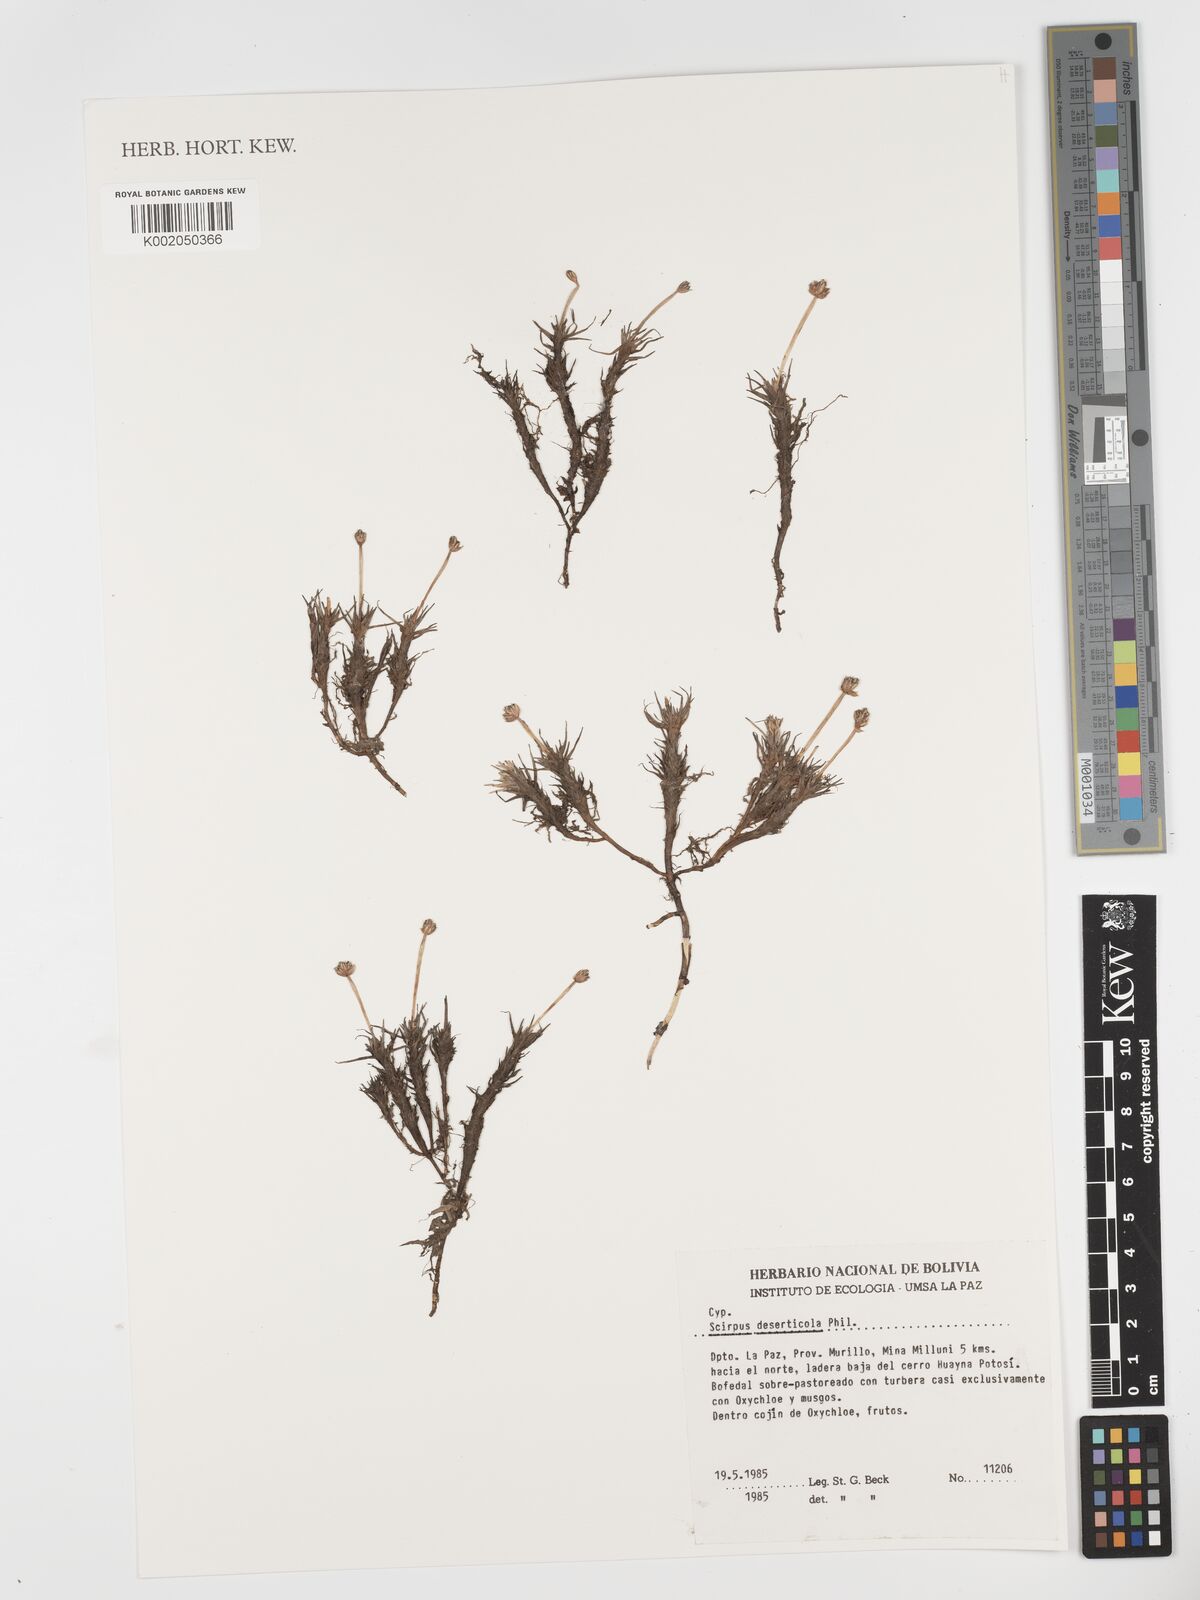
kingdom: Plantae
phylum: Tracheophyta
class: Liliopsida
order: Poales
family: Cyperaceae
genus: Phylloscirpus
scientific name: Phylloscirpus deserticola
